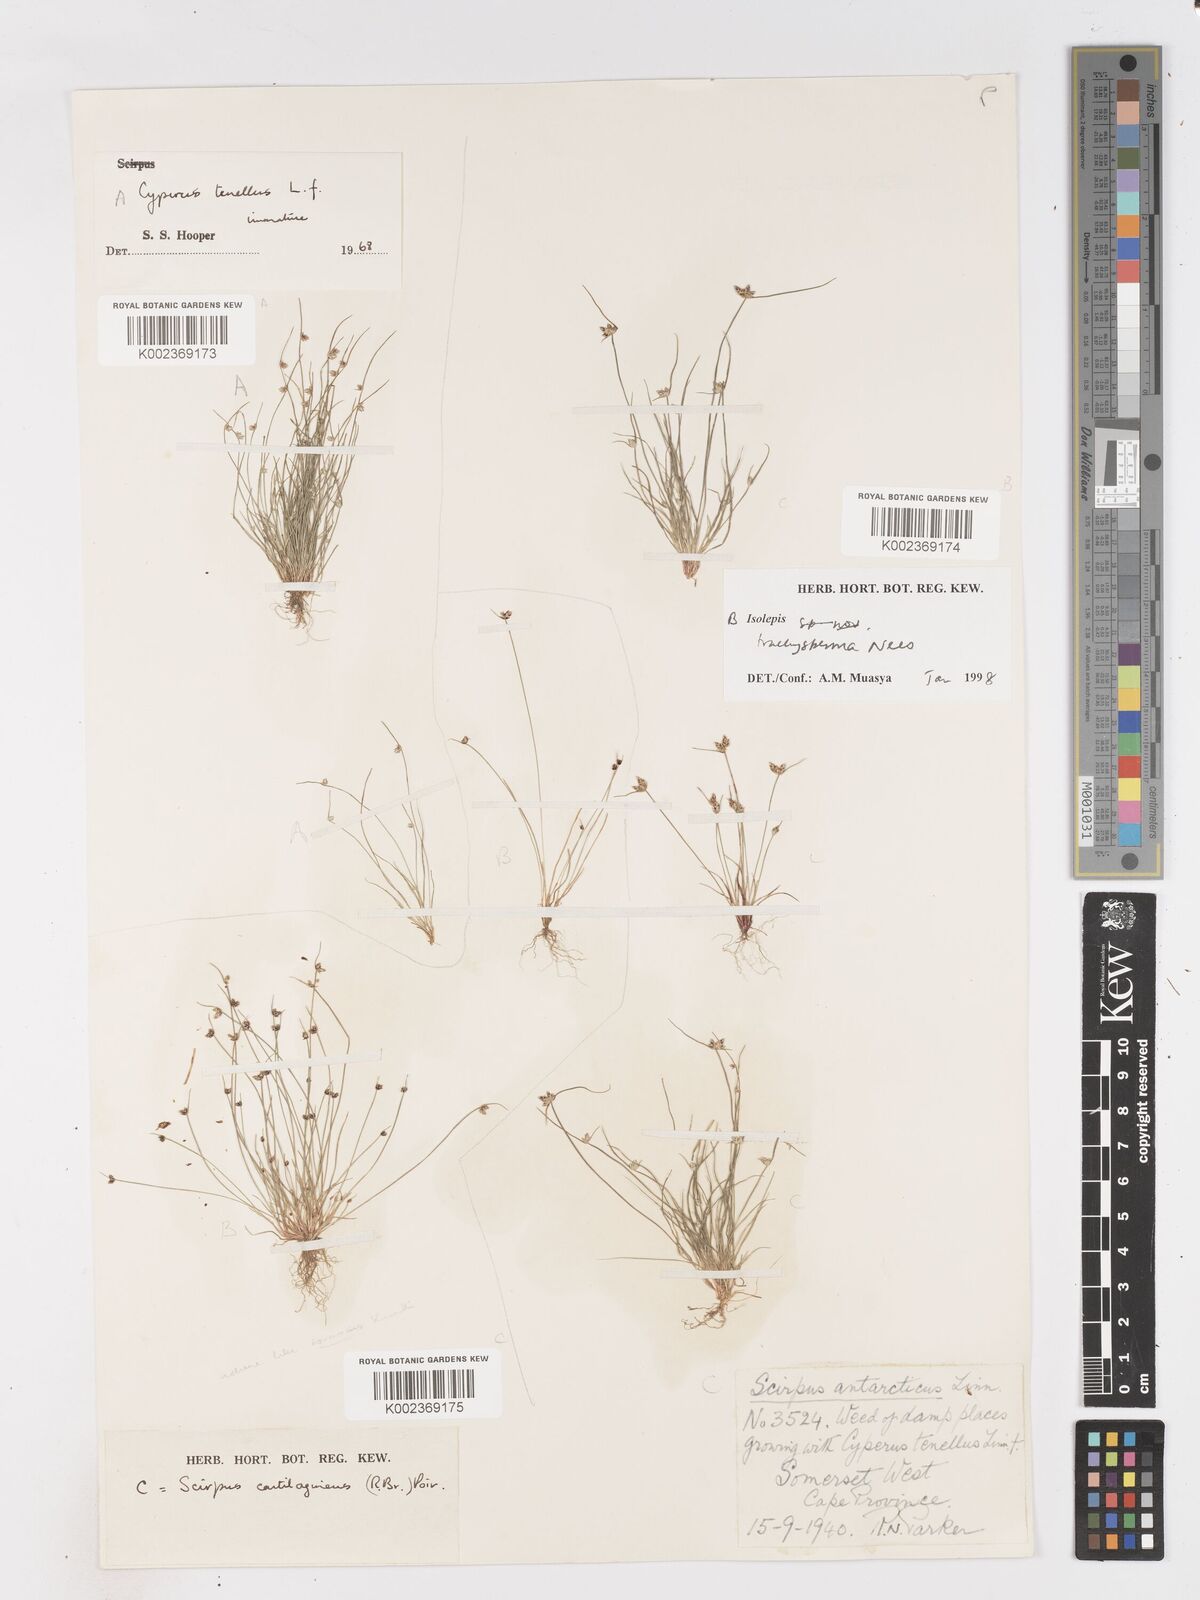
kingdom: Plantae
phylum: Tracheophyta
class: Liliopsida
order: Poales
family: Cyperaceae
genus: Isolepis
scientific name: Isolepis trachysperma
